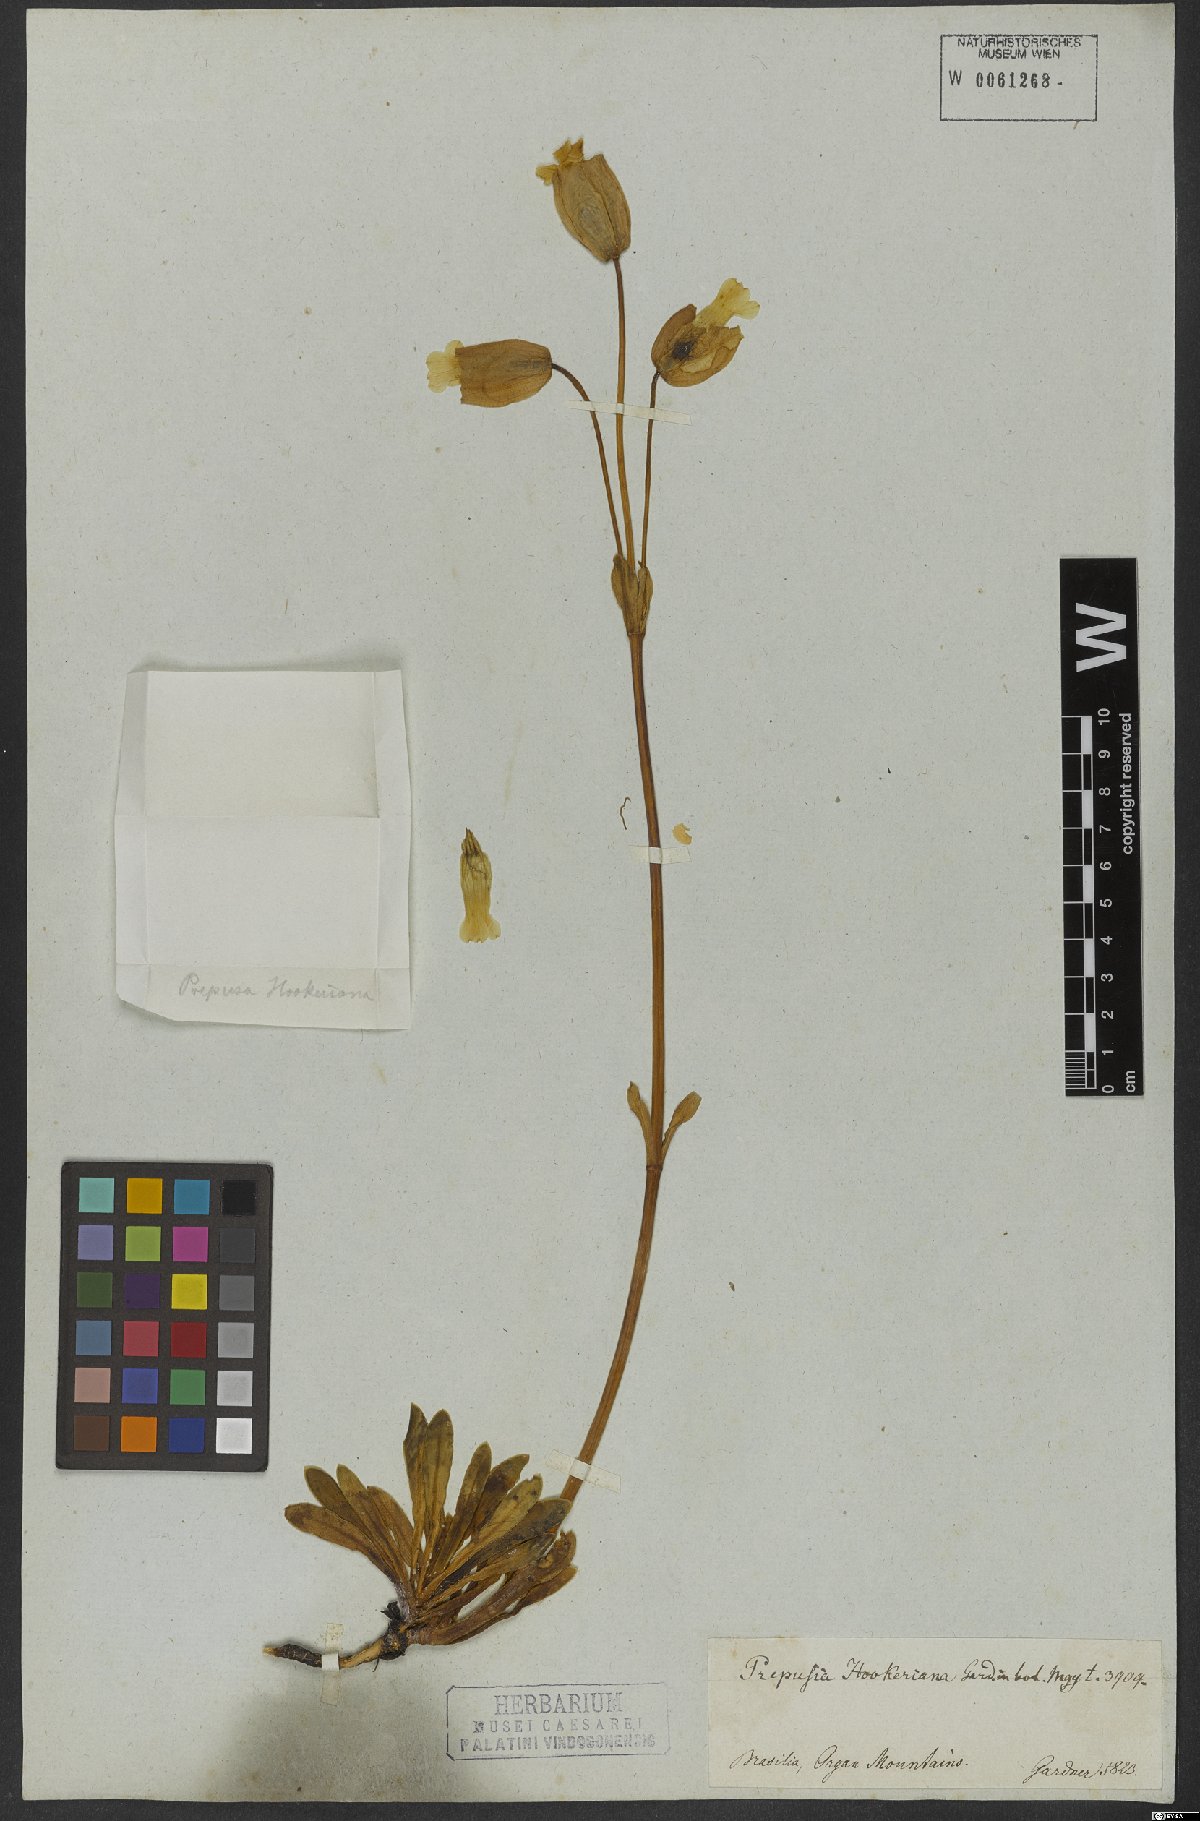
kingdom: Plantae
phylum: Tracheophyta
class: Magnoliopsida
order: Gentianales
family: Gentianaceae
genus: Prepusa
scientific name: Prepusa hookeriana
